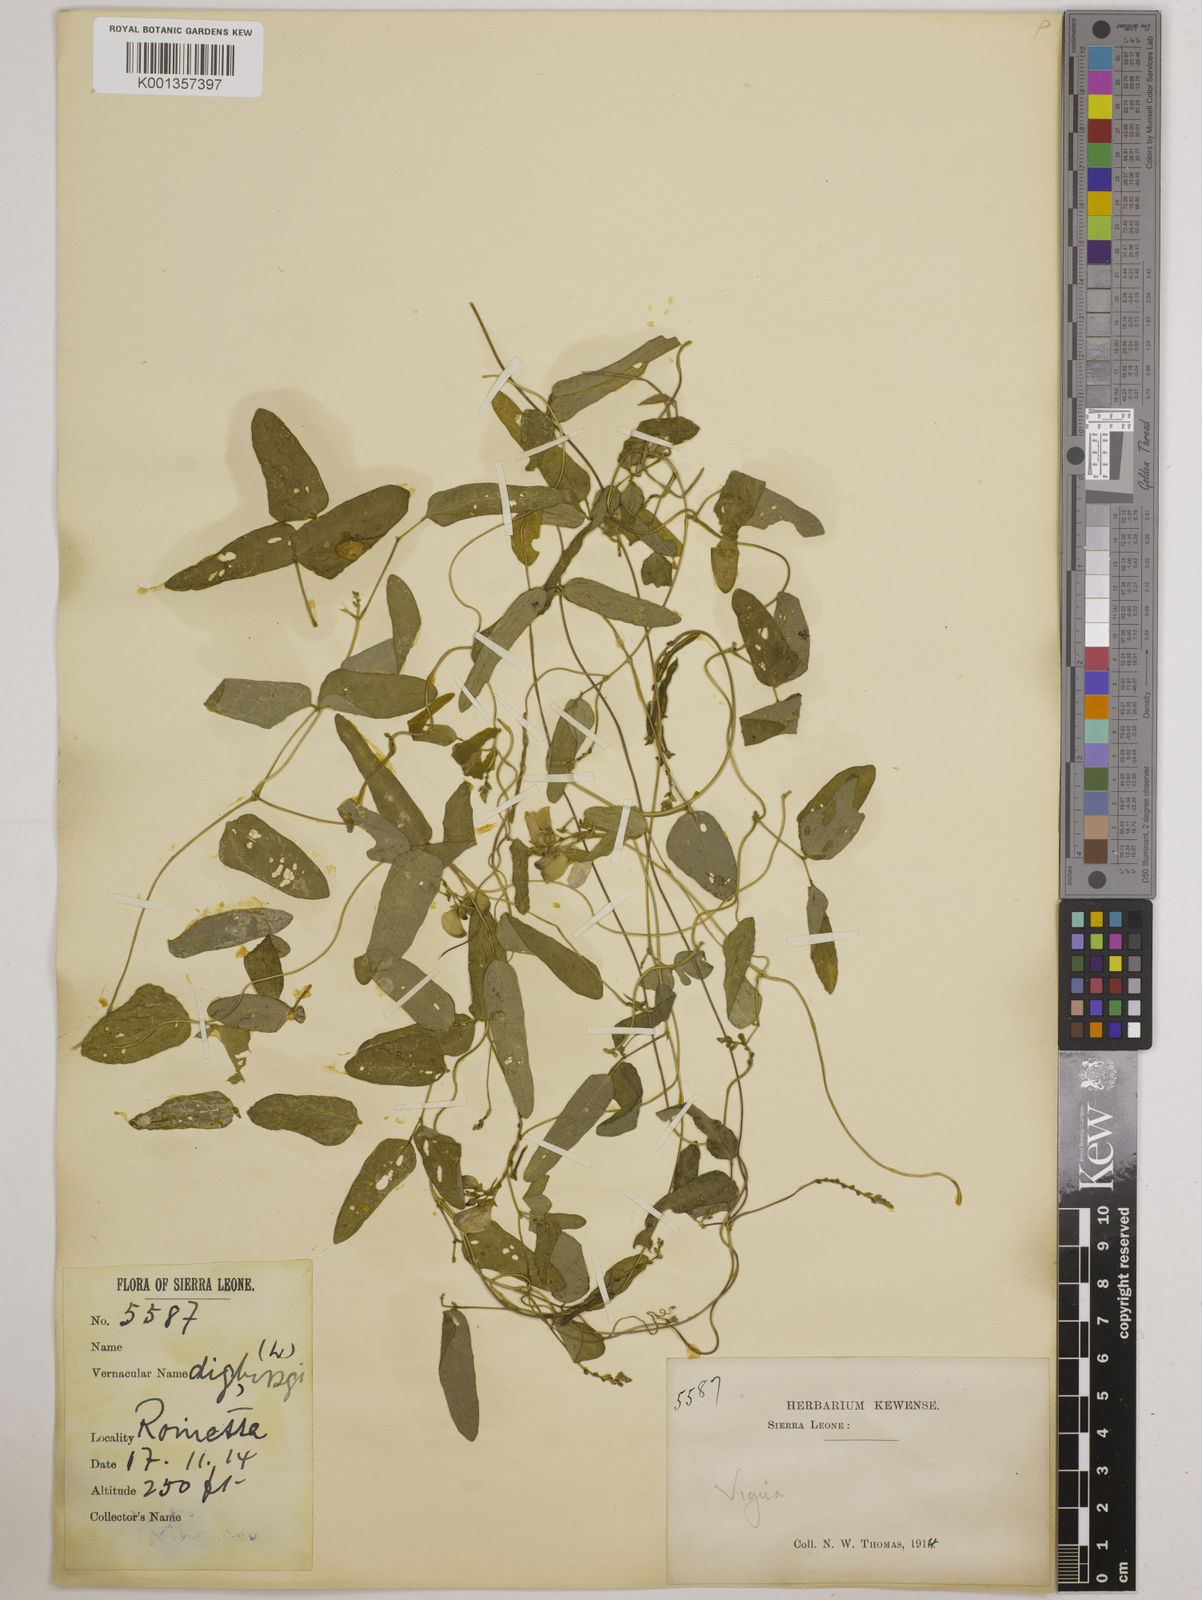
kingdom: Plantae
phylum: Tracheophyta
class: Magnoliopsida
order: Fabales
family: Fabaceae
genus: Vigna
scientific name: Vigna gracilis
